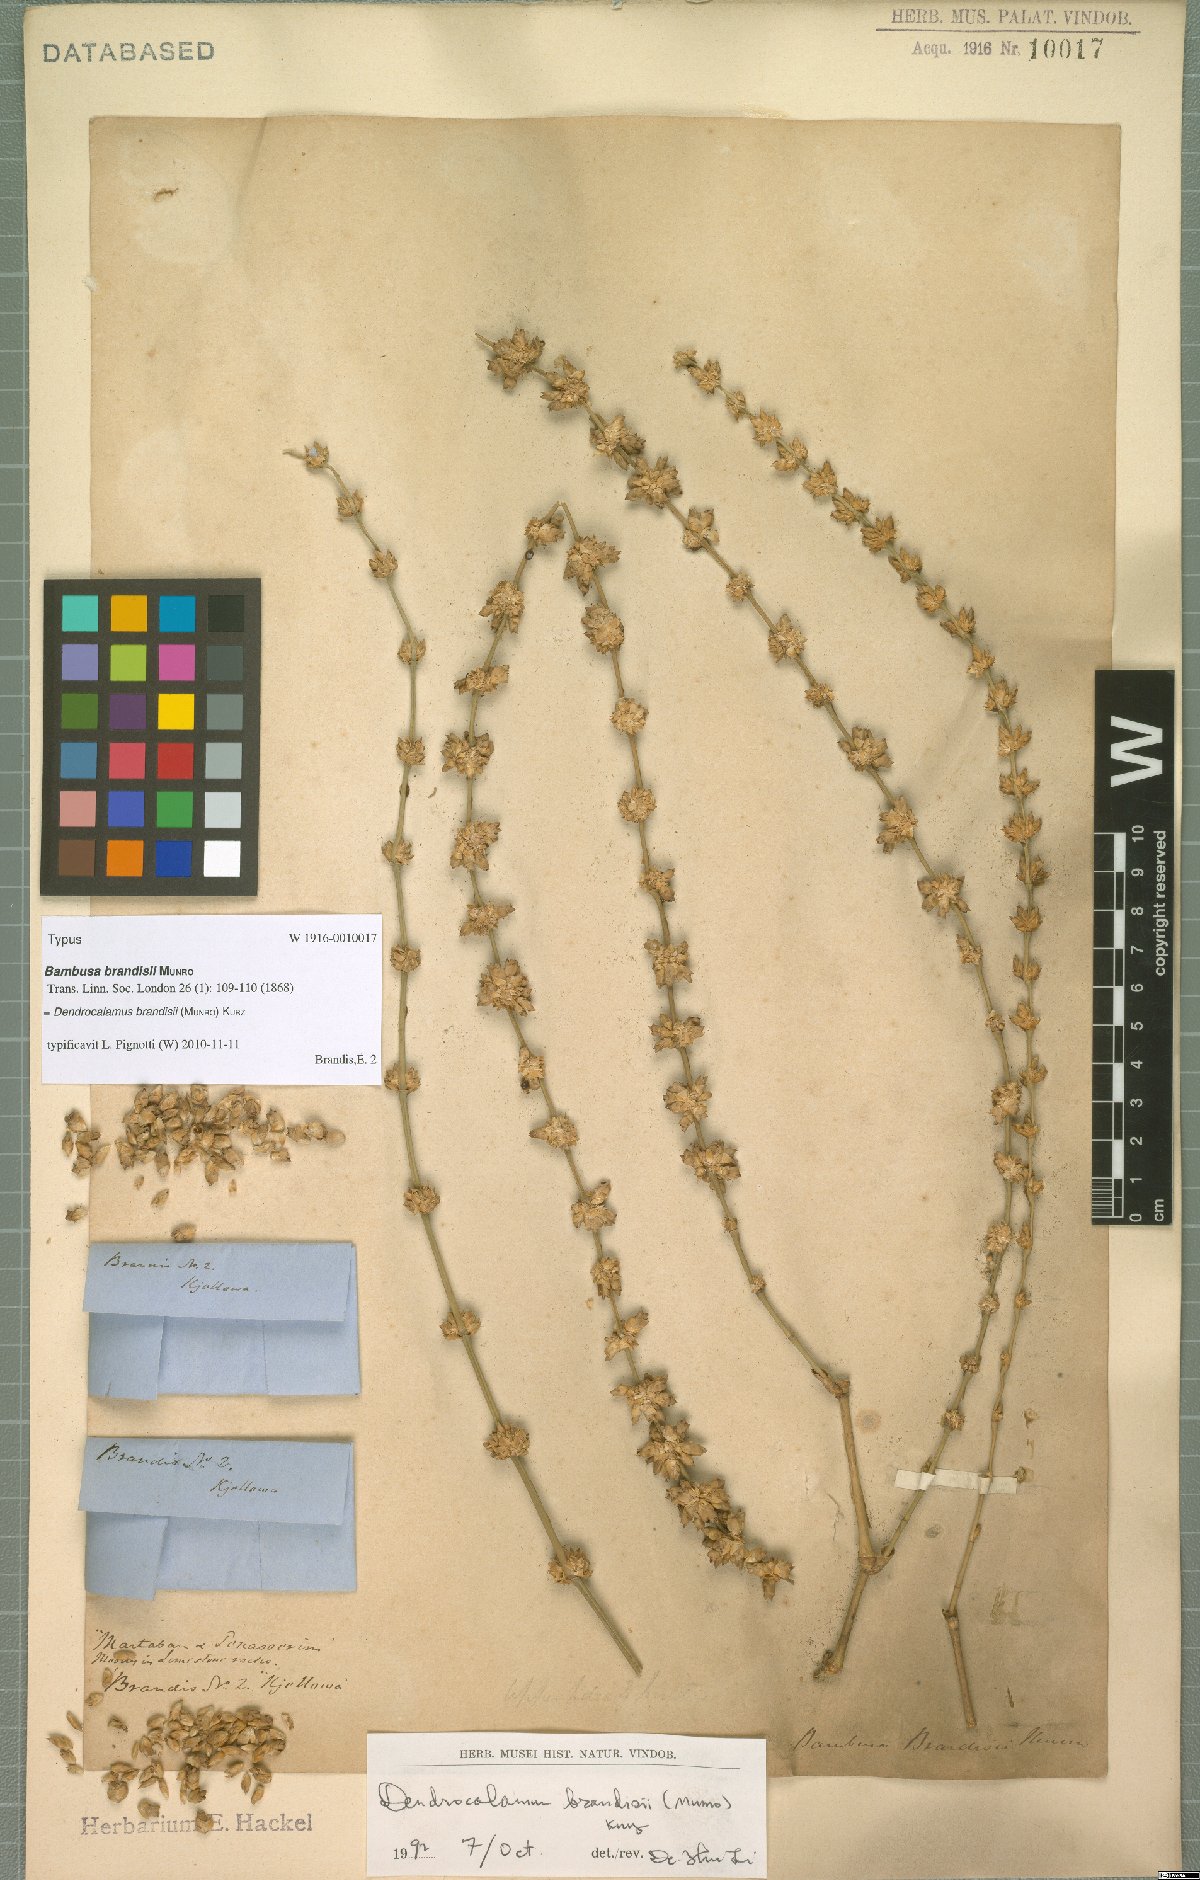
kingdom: Plantae
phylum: Tracheophyta
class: Liliopsida
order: Poales
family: Poaceae
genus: Dendrocalamus
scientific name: Dendrocalamus brandisii
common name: Velvetleaf bamboo
